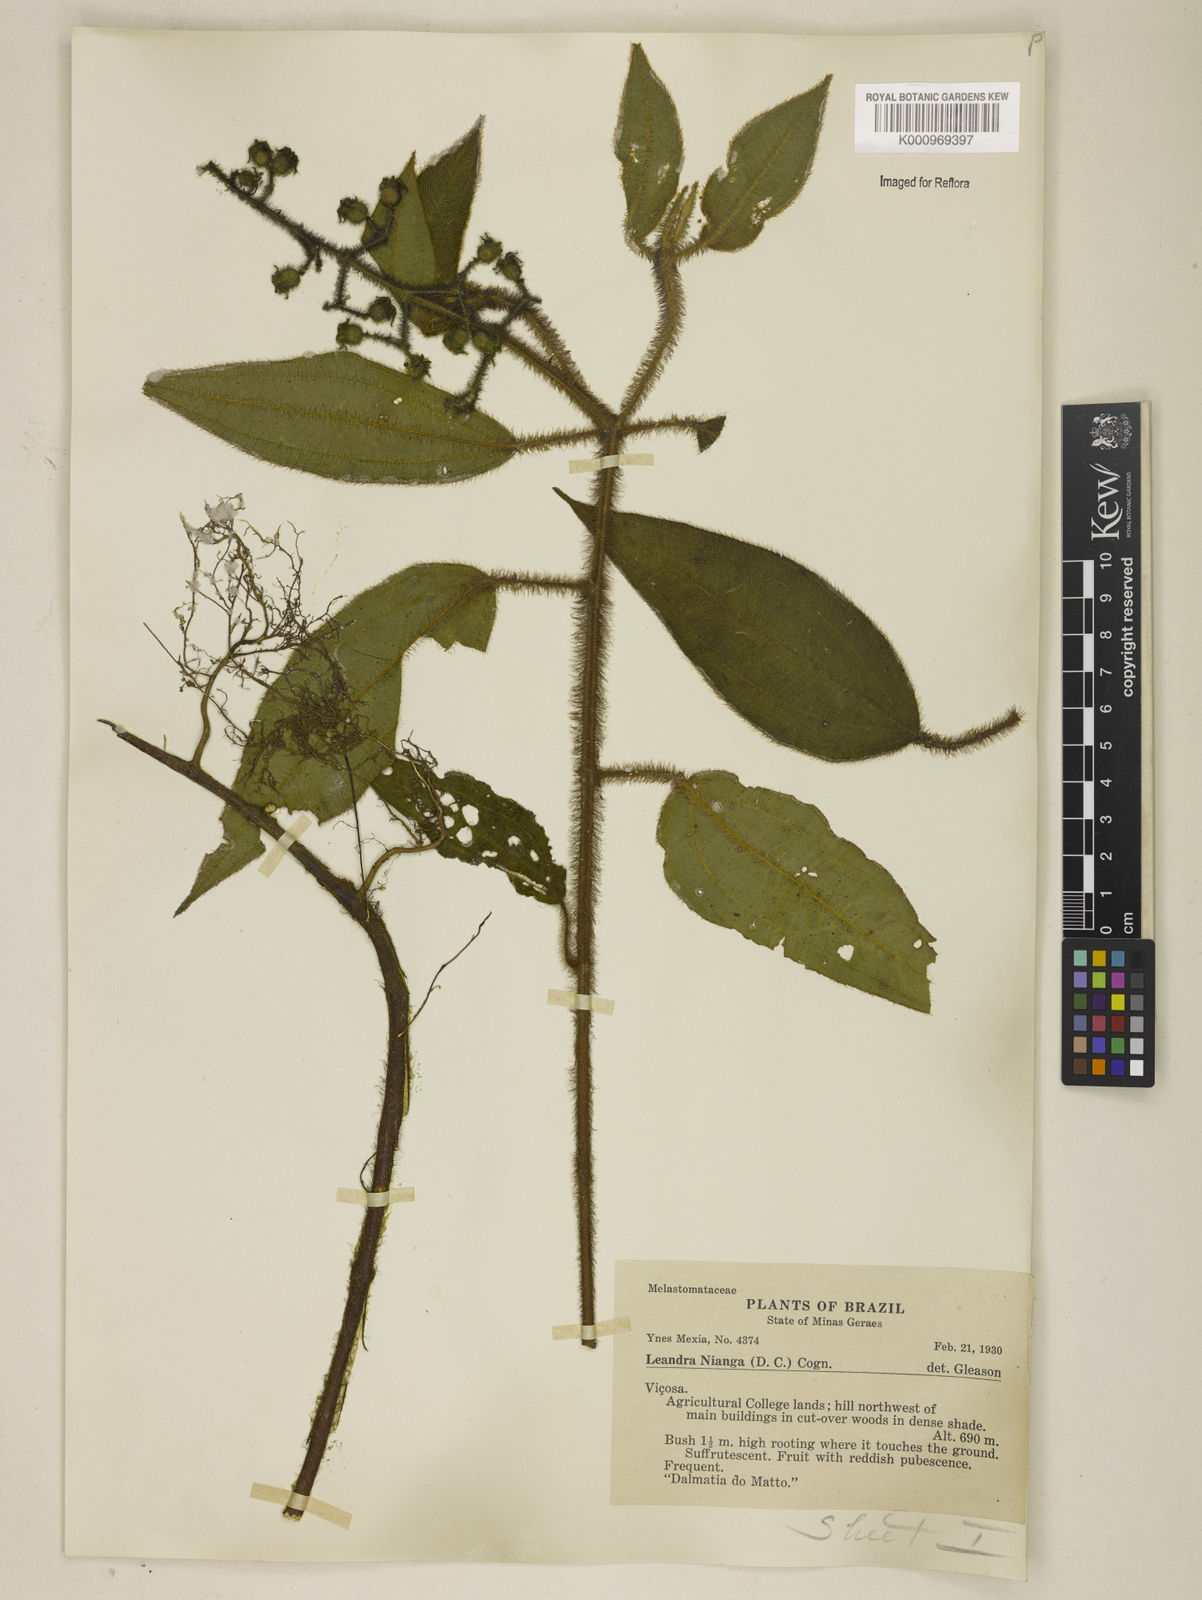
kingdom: Plantae
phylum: Tracheophyta
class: Magnoliopsida
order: Myrtales
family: Melastomataceae
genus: Miconia
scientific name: Miconia nianga
